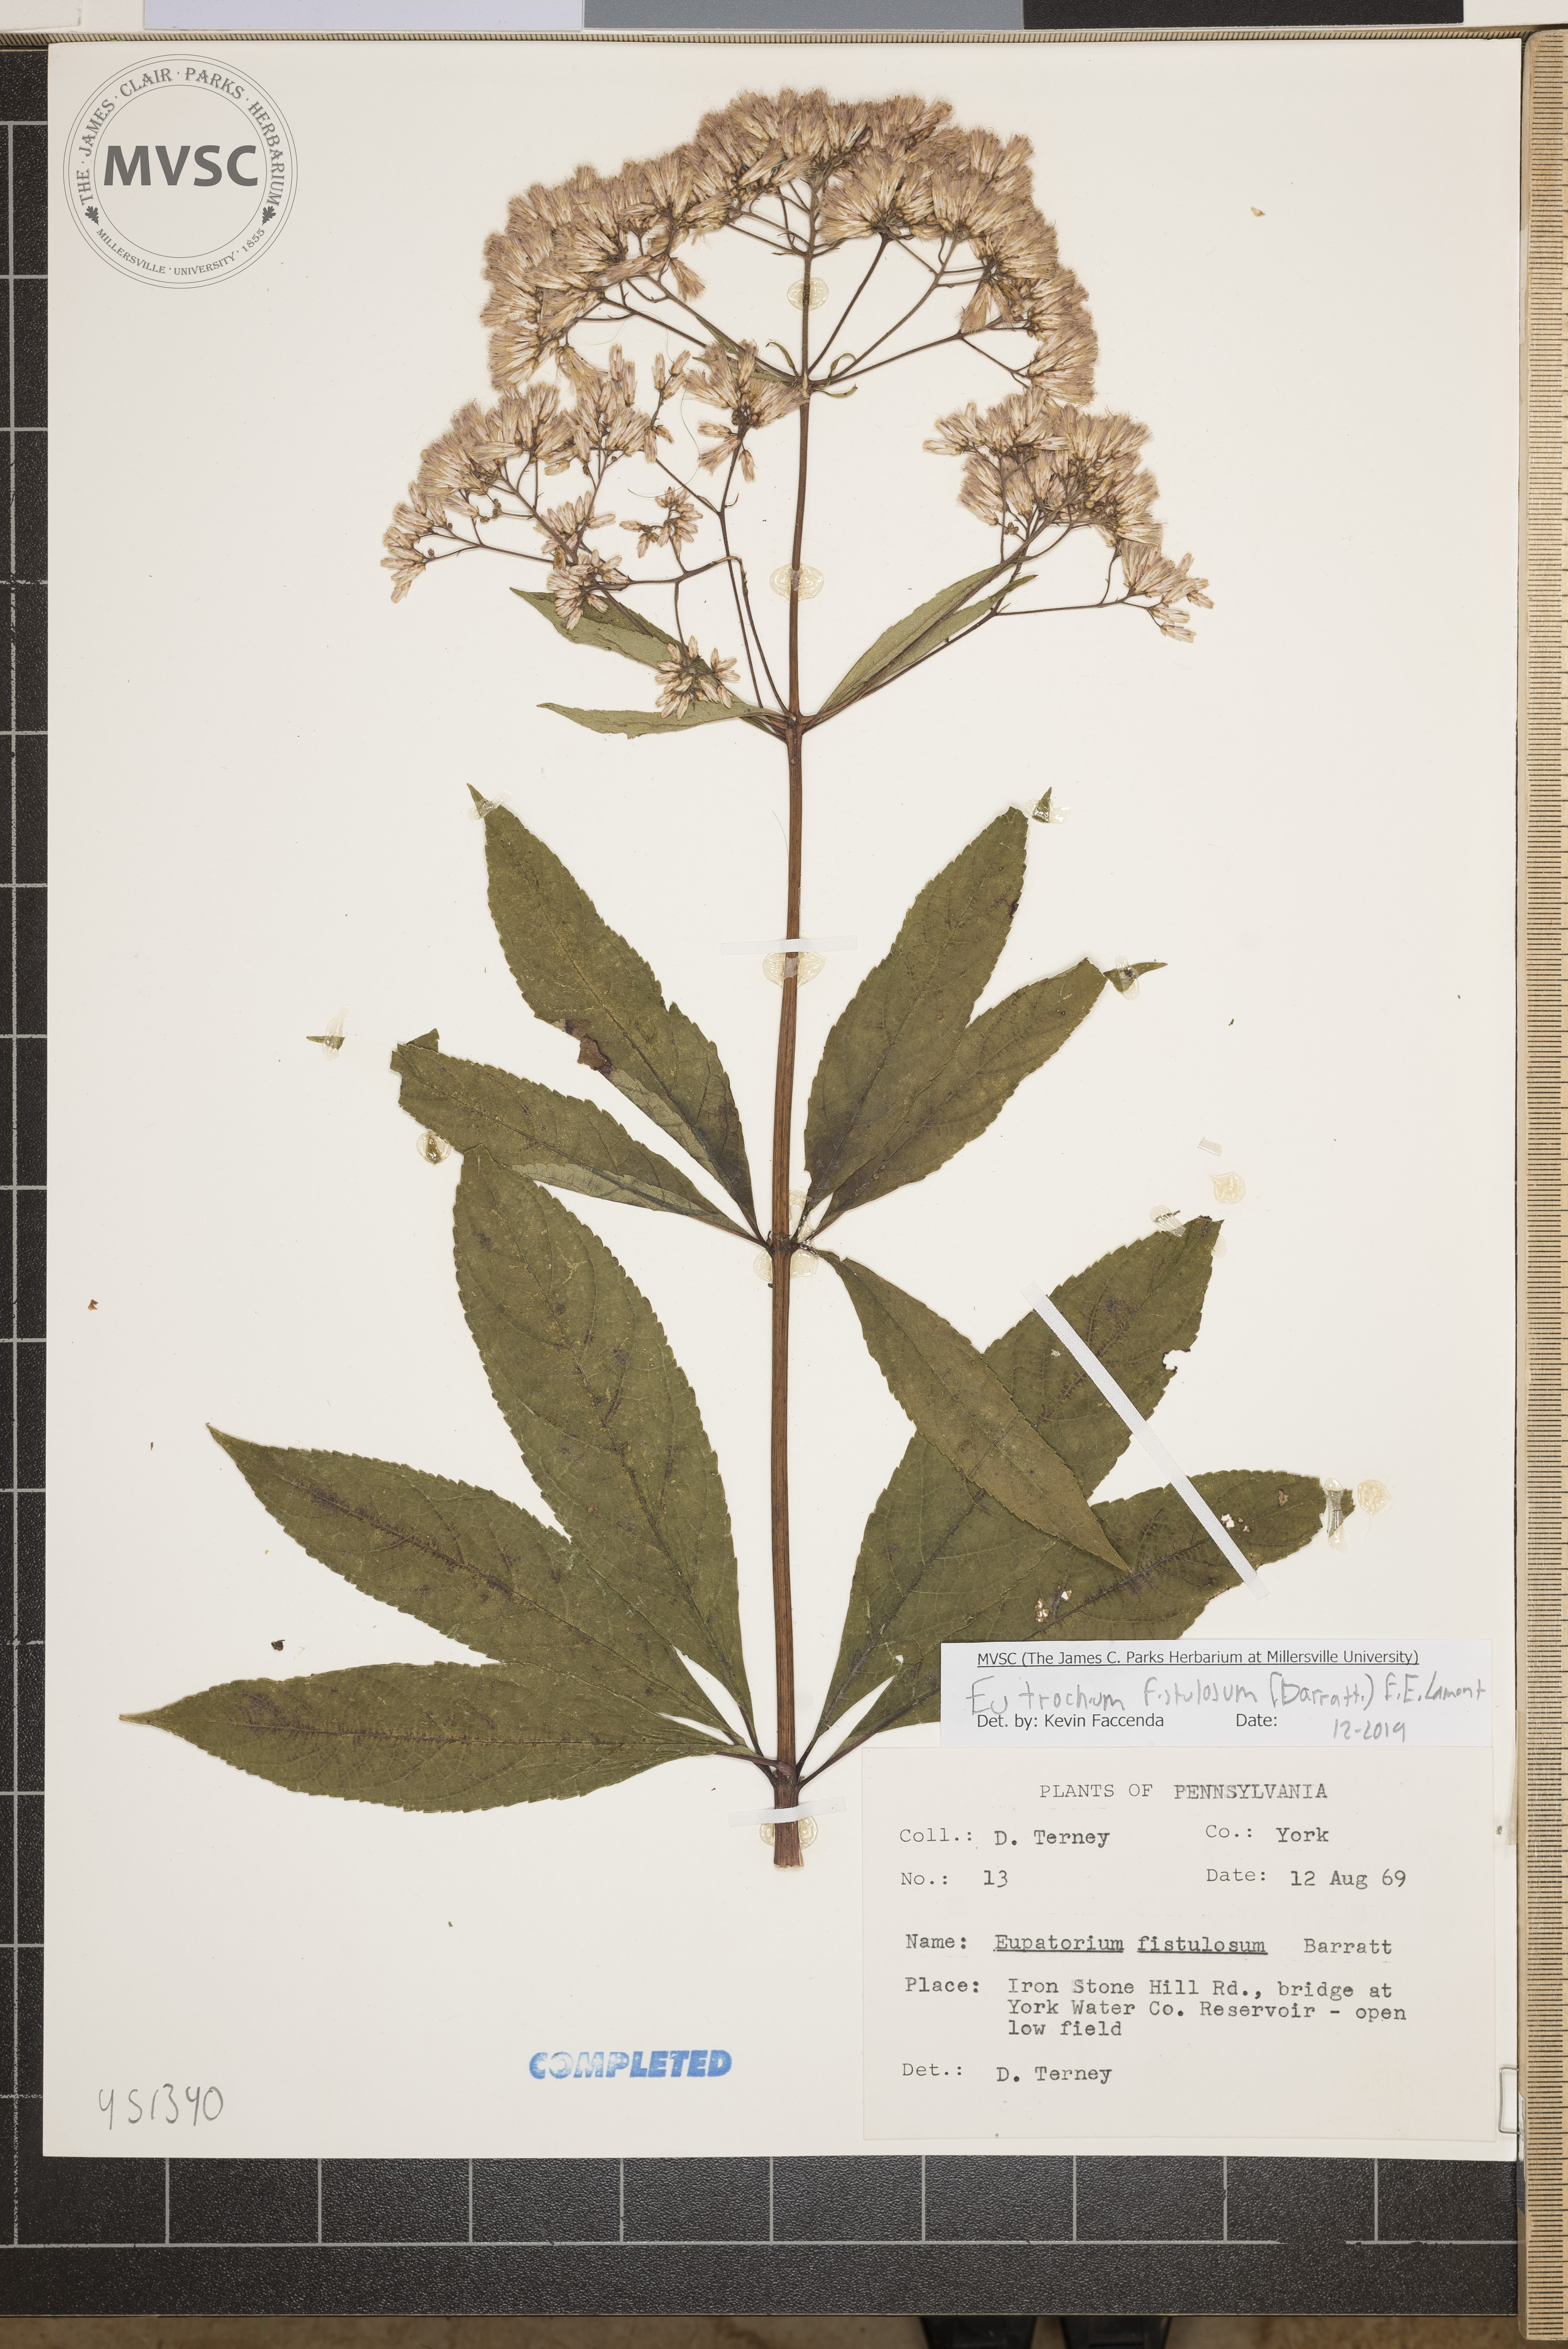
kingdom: Plantae
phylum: Tracheophyta
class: Magnoliopsida
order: Asterales
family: Asteraceae
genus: Eutrochium
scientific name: Eutrochium fistulosum
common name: Trumpetweed
